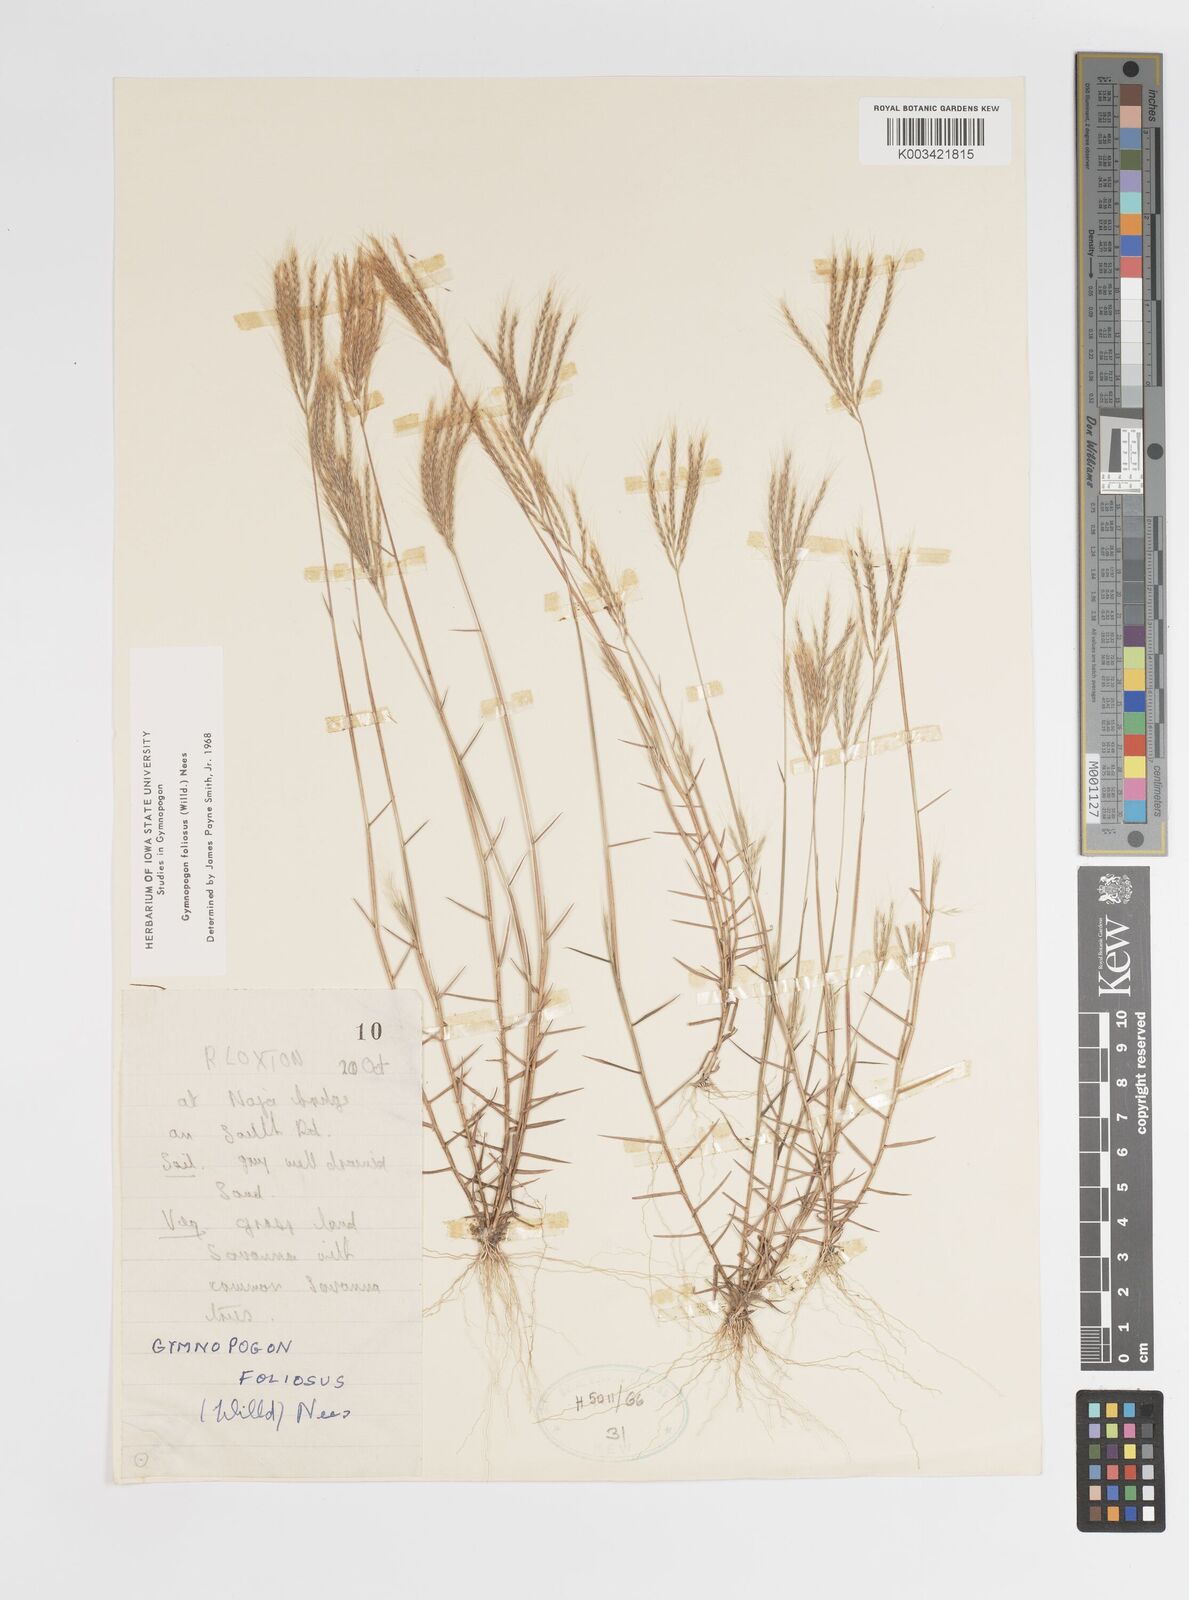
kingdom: Plantae
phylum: Tracheophyta
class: Liliopsida
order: Poales
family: Poaceae
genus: Gymnopogon
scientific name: Gymnopogon foliosus
